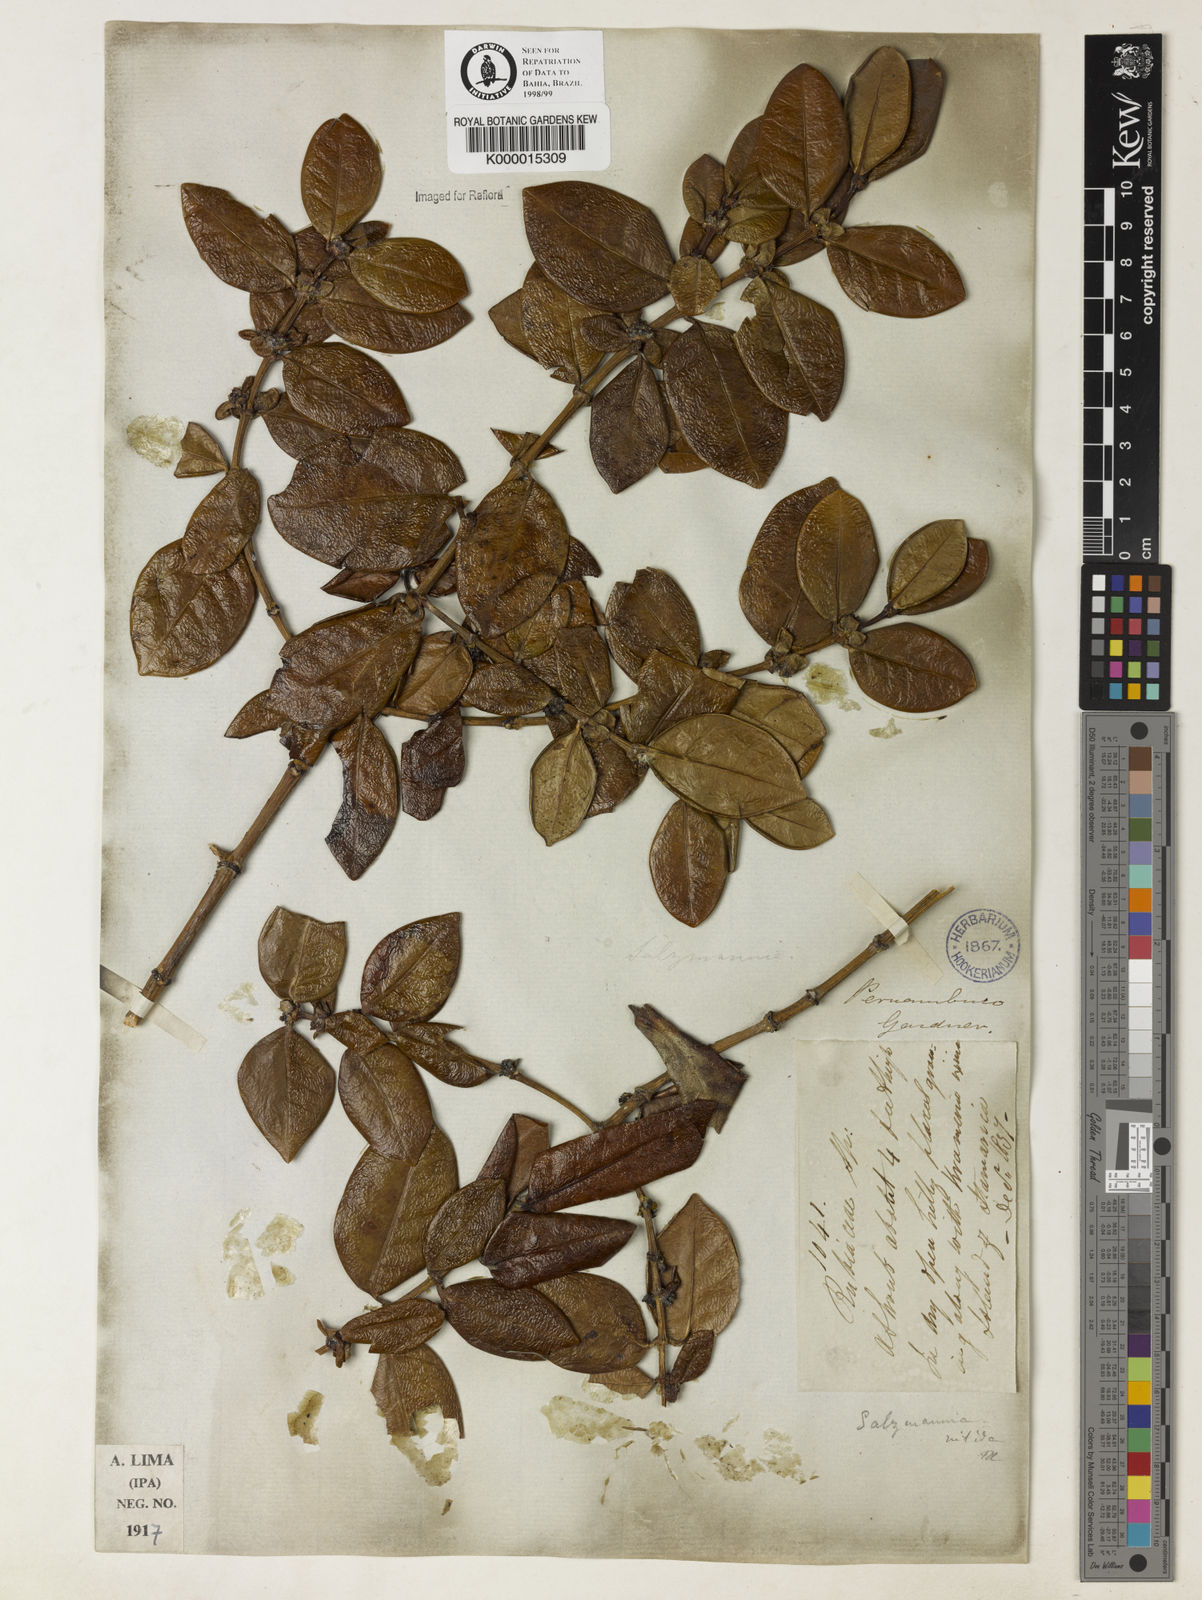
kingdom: Plantae
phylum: Tracheophyta
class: Magnoliopsida
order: Gentianales
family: Rubiaceae
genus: Salzmannia
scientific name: Salzmannia nitida
